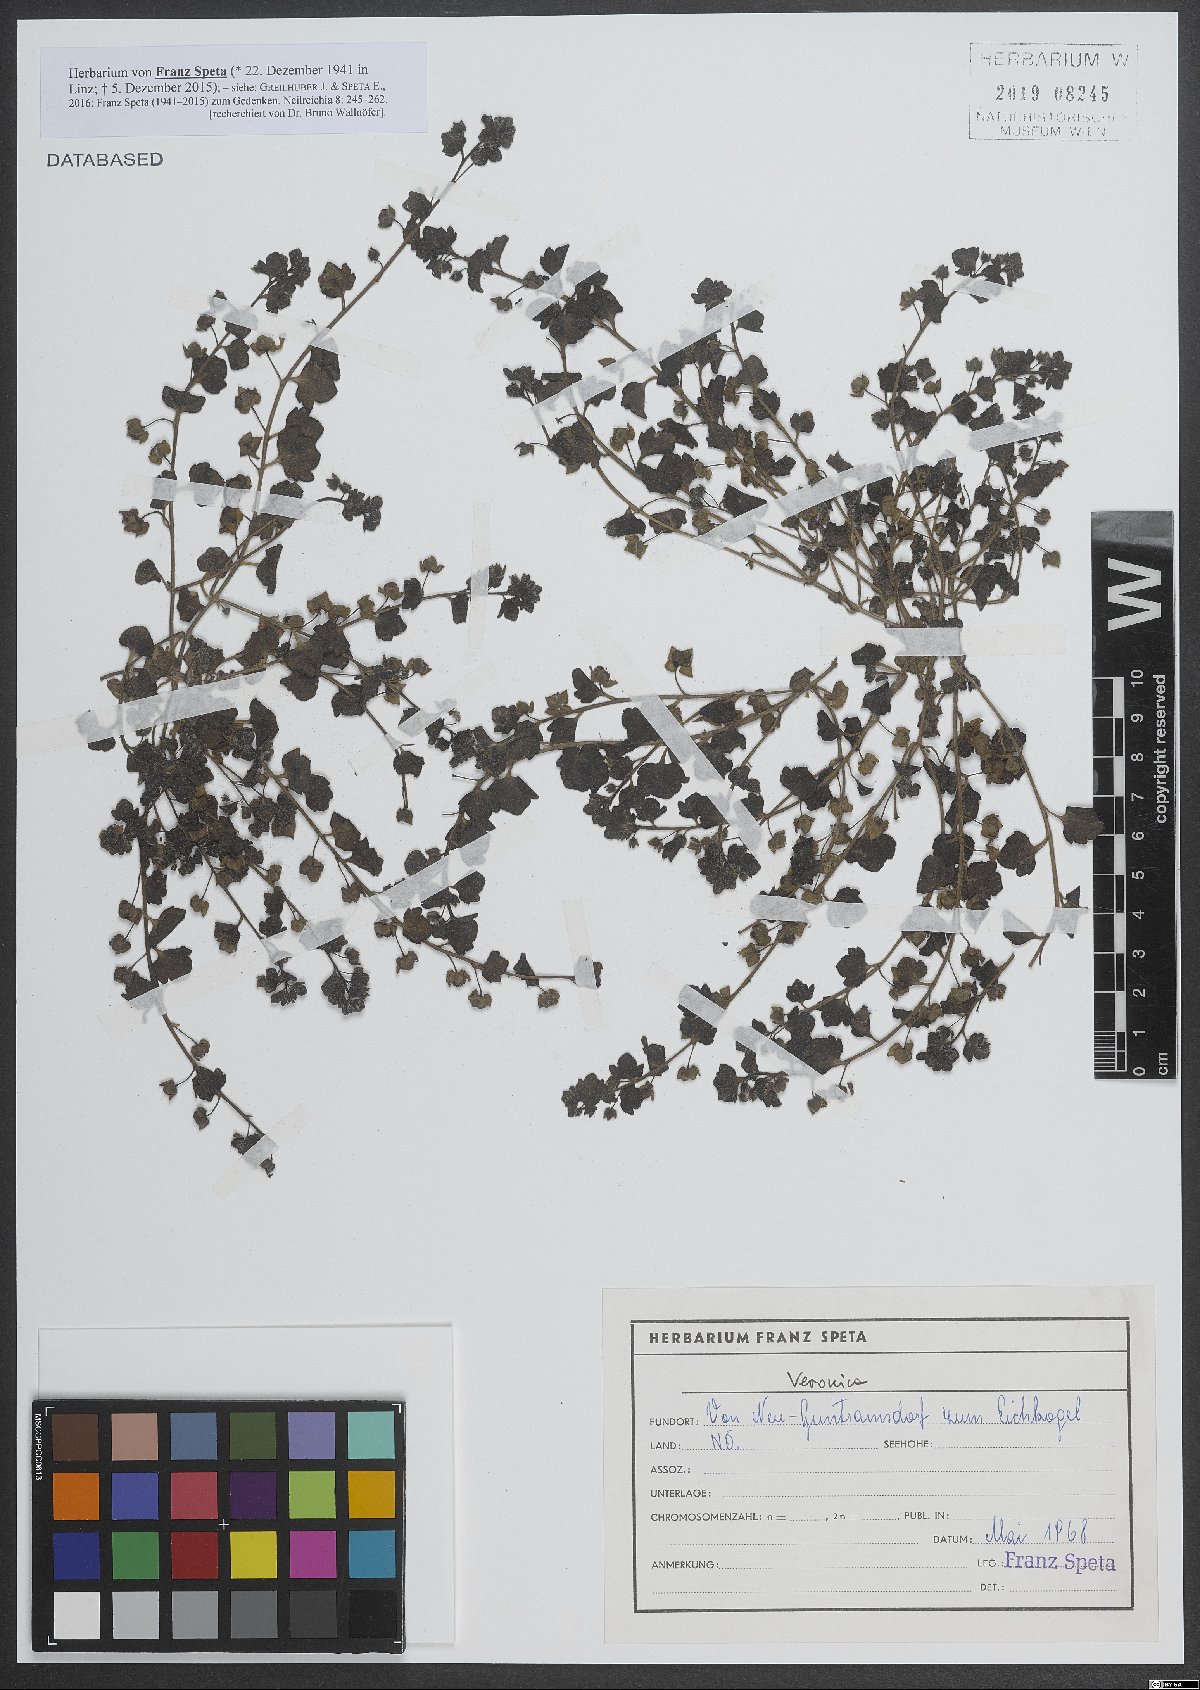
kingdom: Plantae
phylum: Tracheophyta
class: Magnoliopsida
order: Lamiales
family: Plantaginaceae
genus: Veronica
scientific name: Veronica
